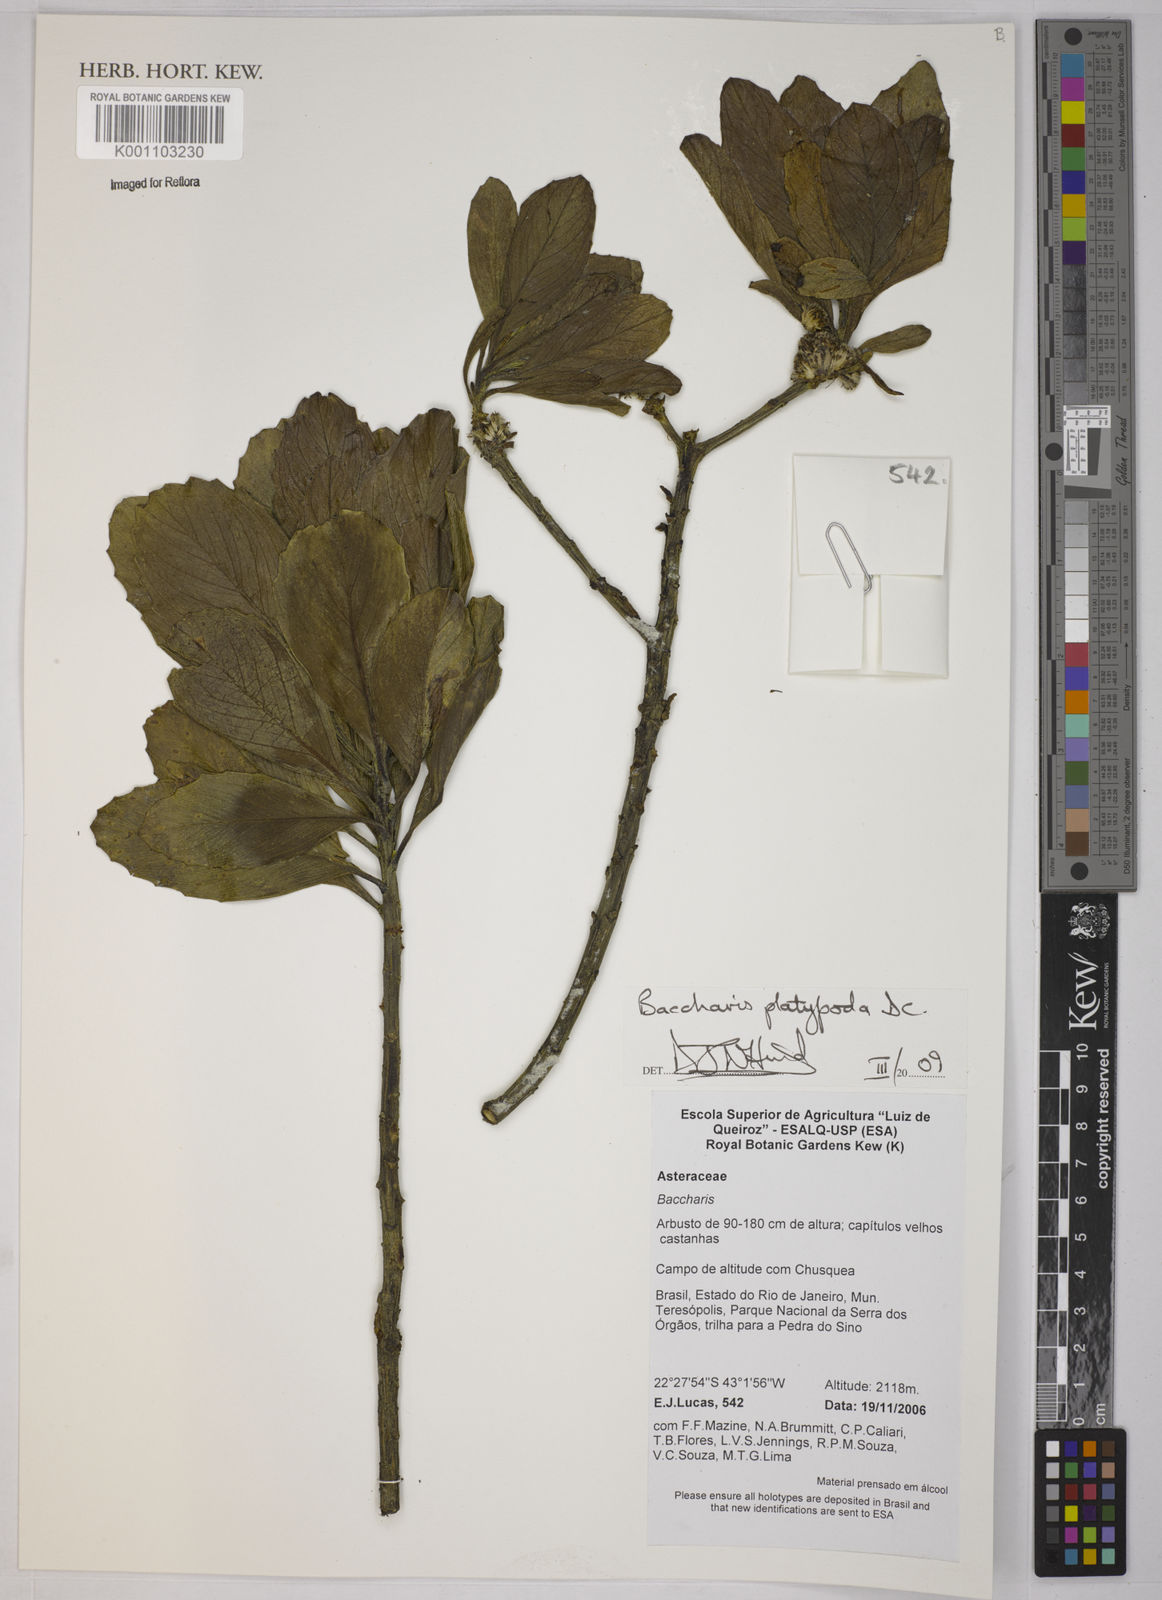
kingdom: Plantae
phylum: Tracheophyta
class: Magnoliopsida
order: Asterales
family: Asteraceae
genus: Baccharis
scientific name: Baccharis platypoda
